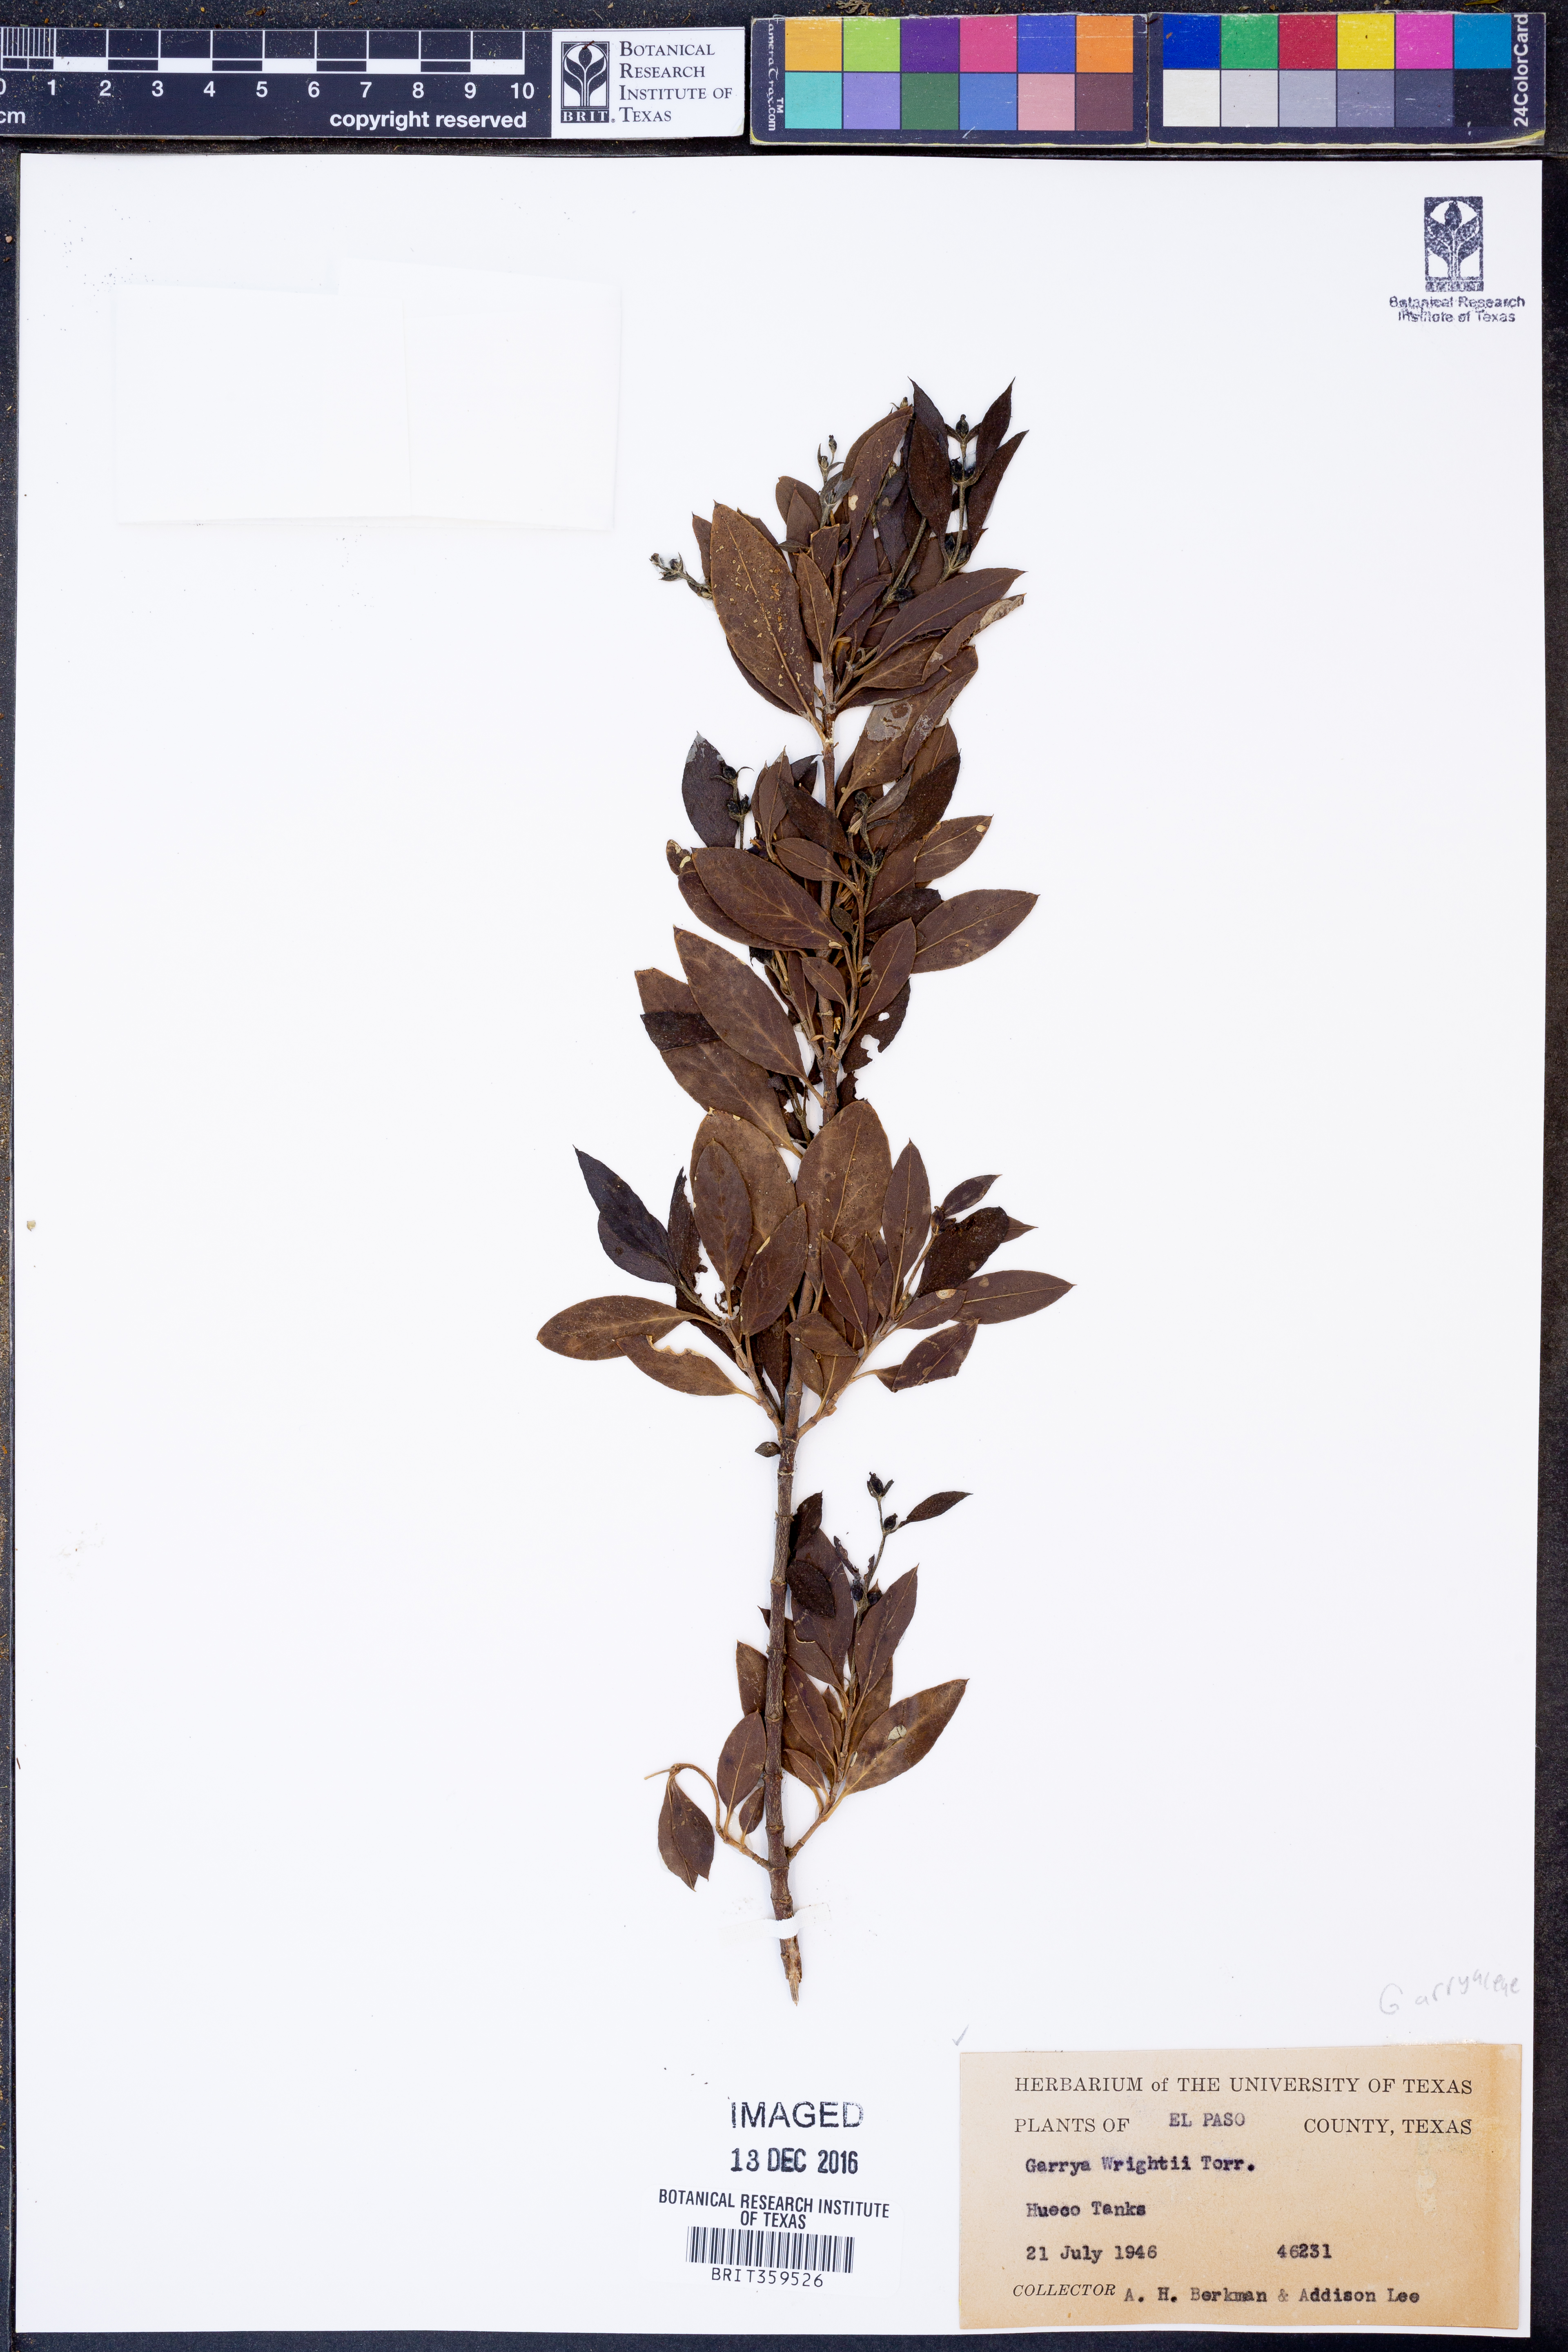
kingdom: Plantae
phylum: Tracheophyta
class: Magnoliopsida
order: Garryales
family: Garryaceae
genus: Garrya
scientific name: Garrya wrightii
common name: Wright's silktassel
